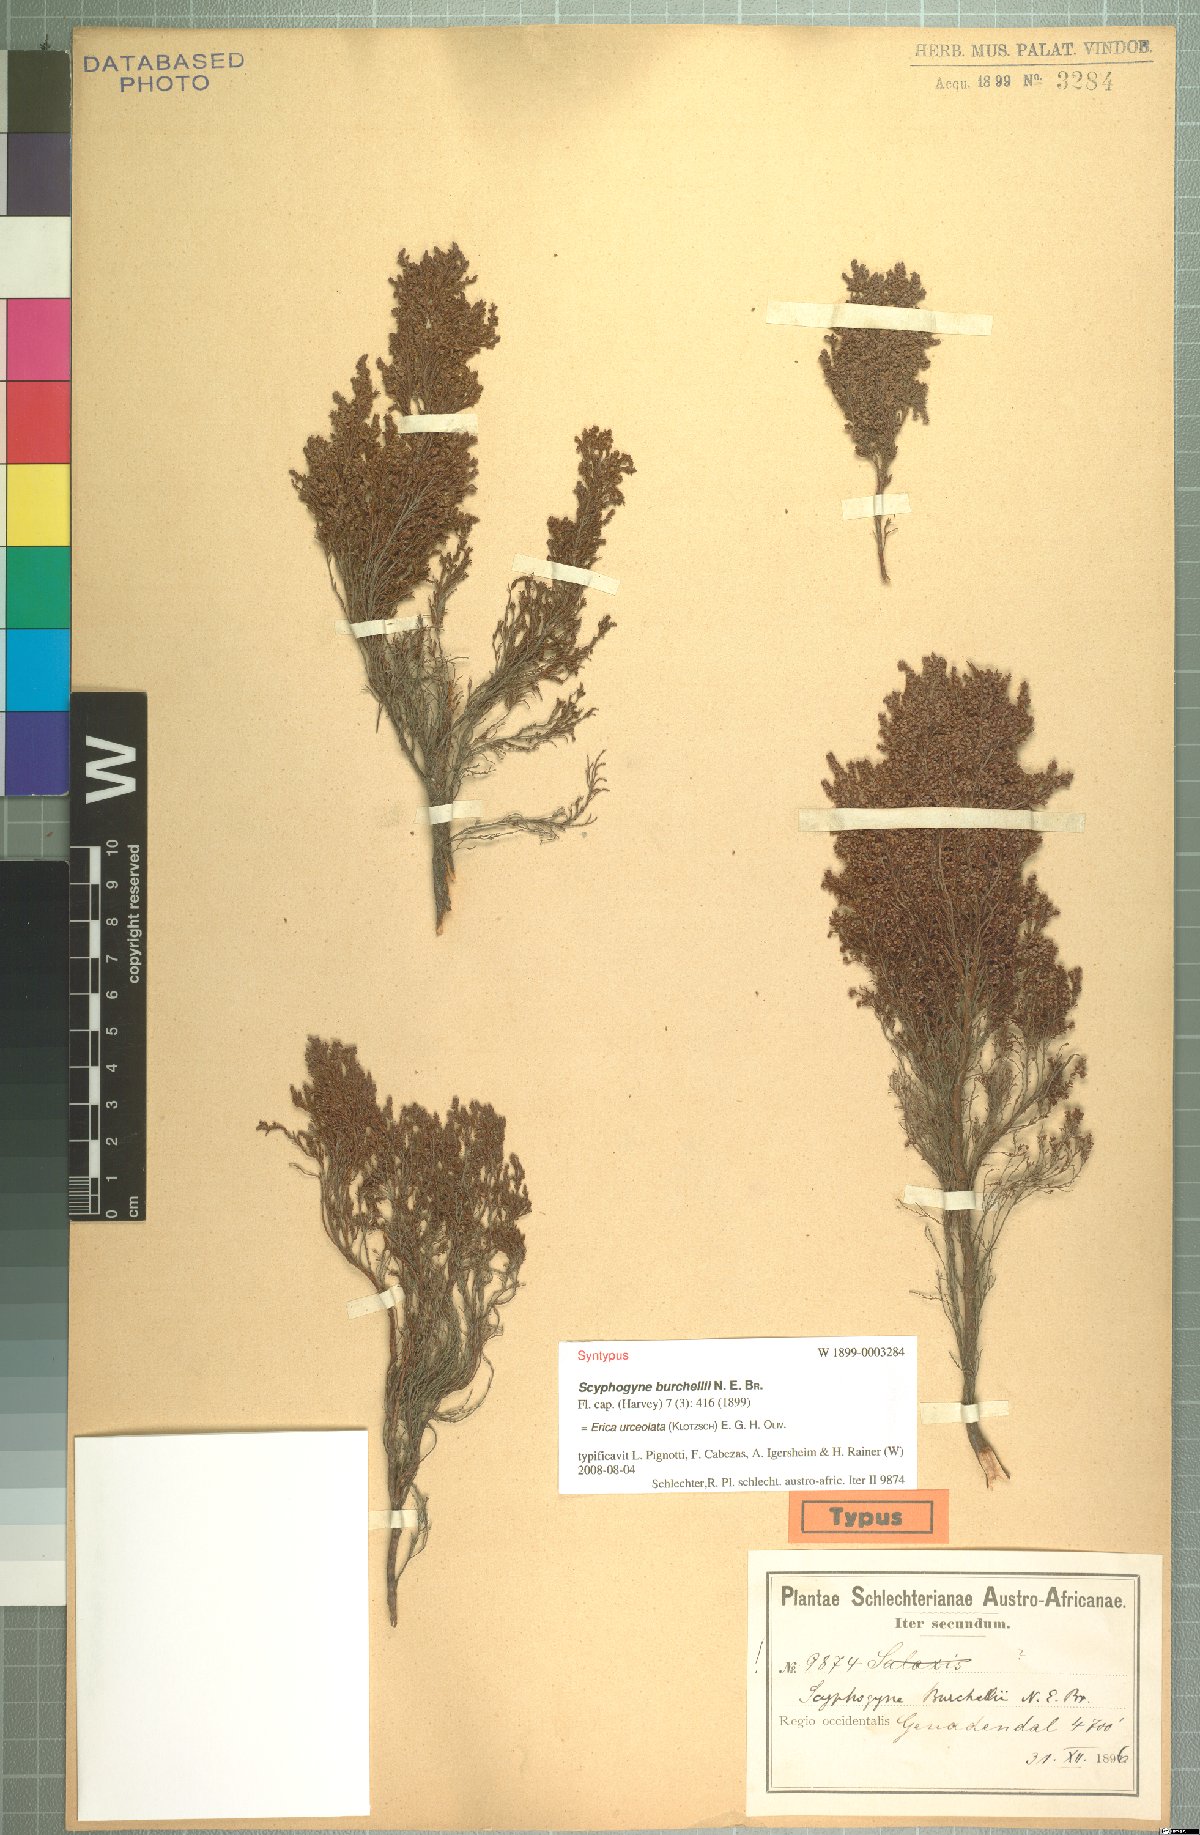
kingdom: Plantae
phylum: Tracheophyta
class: Magnoliopsida
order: Ericales
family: Ericaceae
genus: Erica
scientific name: Erica urceolata
